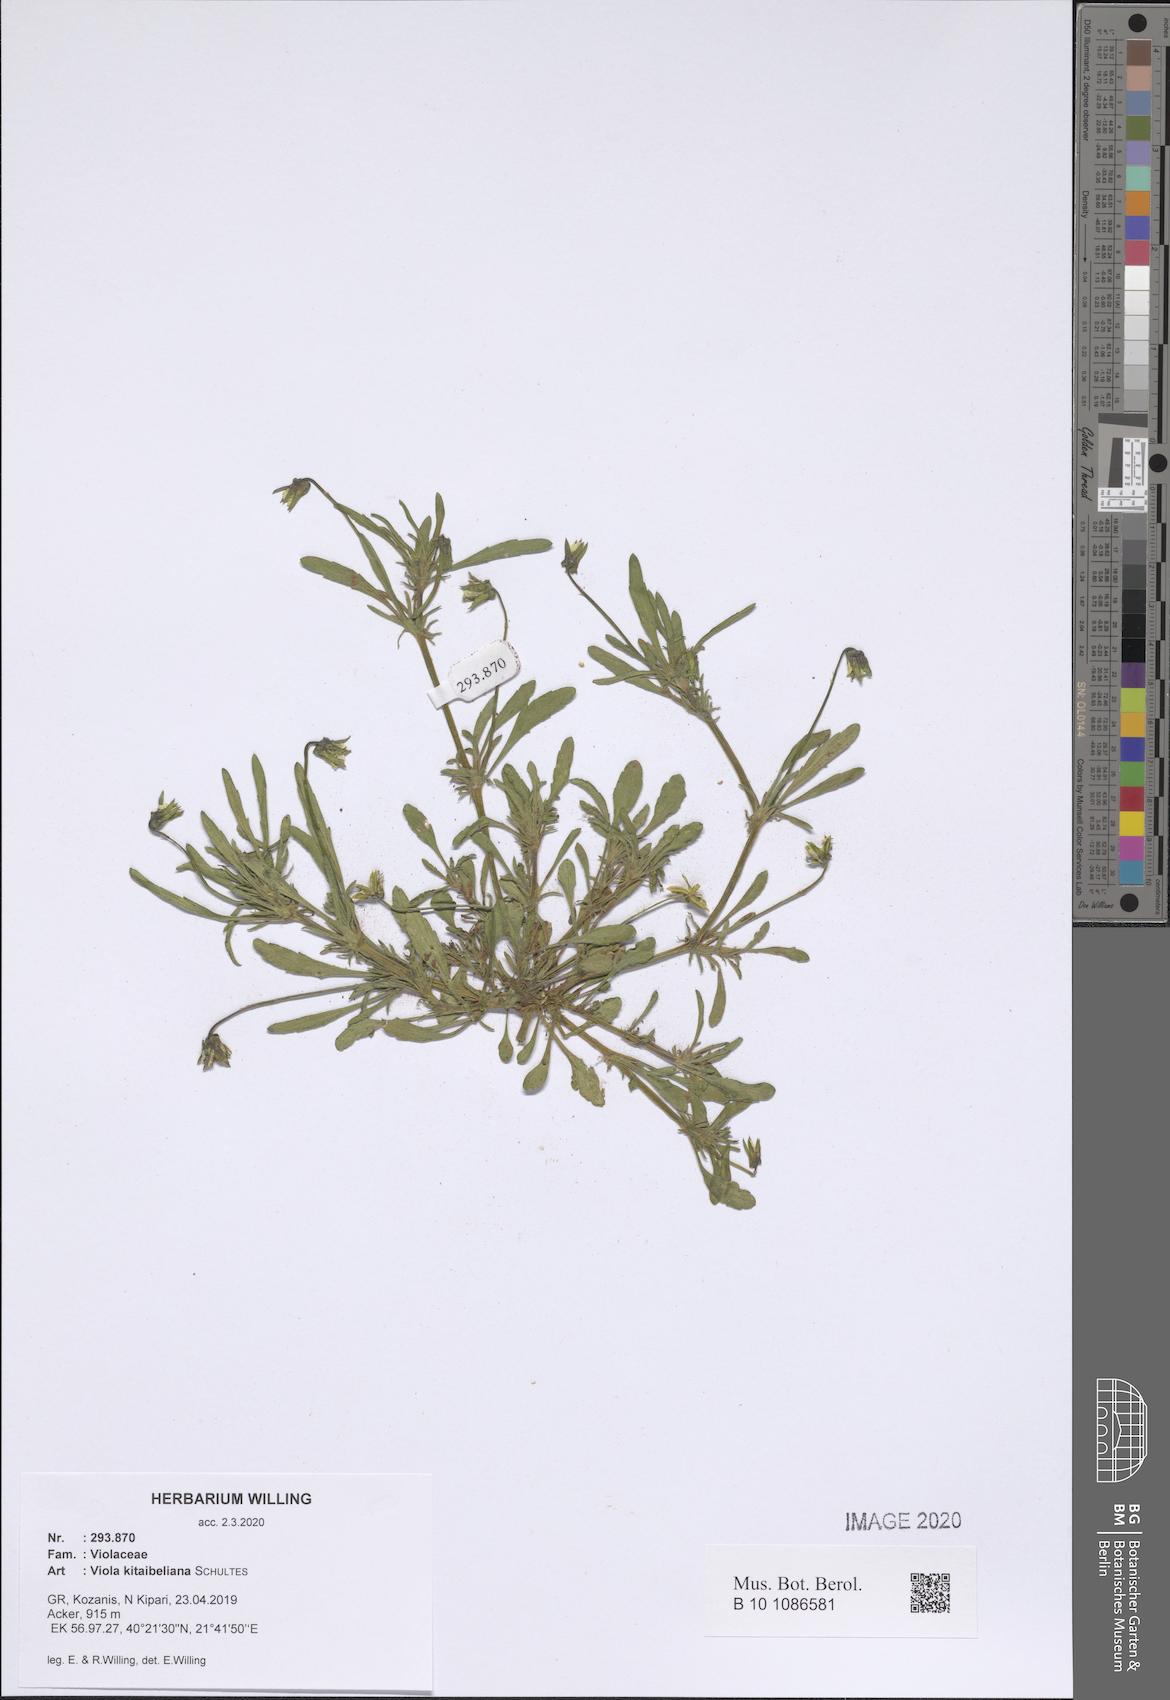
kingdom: Plantae
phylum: Tracheophyta
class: Magnoliopsida
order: Malpighiales
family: Violaceae
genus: Viola
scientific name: Viola kitaibeliana
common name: Dwarf pansy
